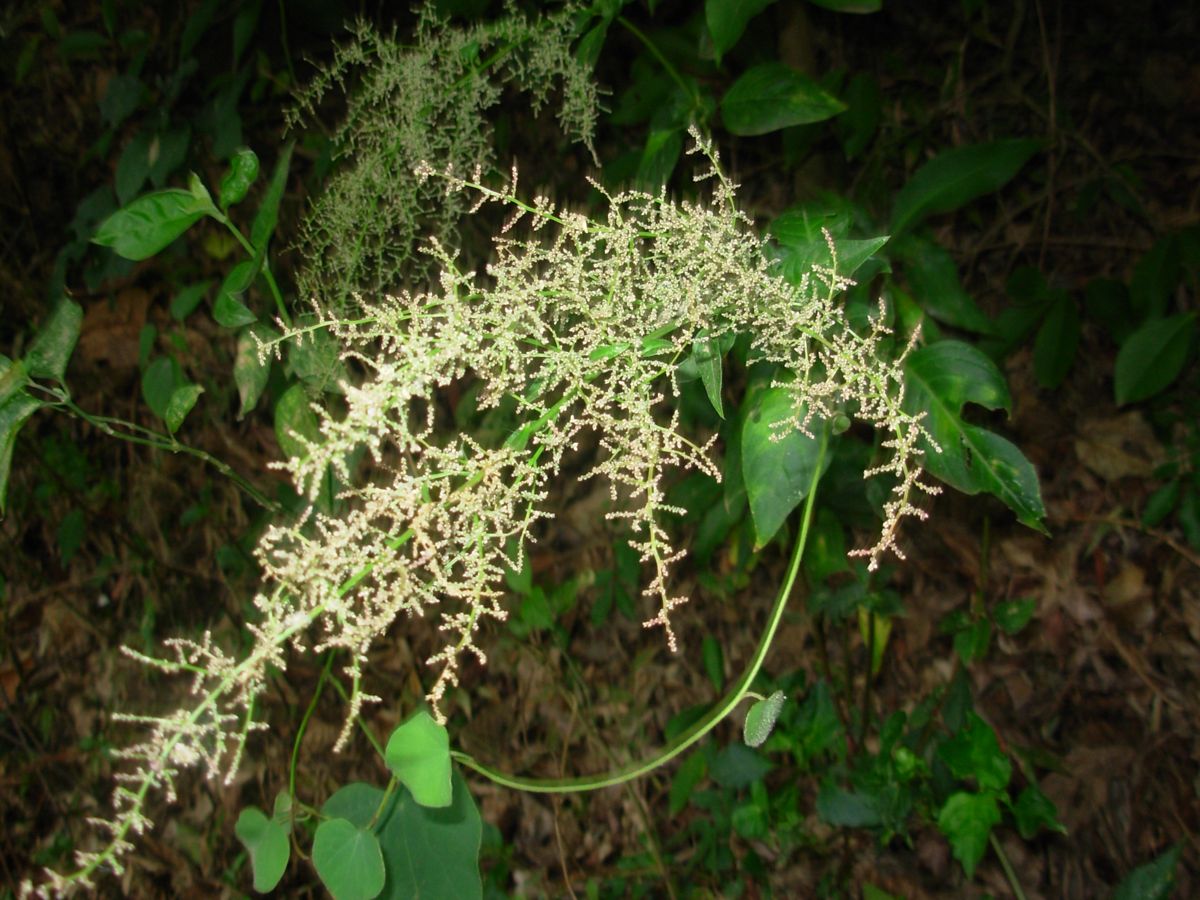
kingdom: Plantae
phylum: Tracheophyta
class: Magnoliopsida
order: Caryophyllales
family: Amaranthaceae
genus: Iresine
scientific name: Iresine diffusa
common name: Juba's-bush
